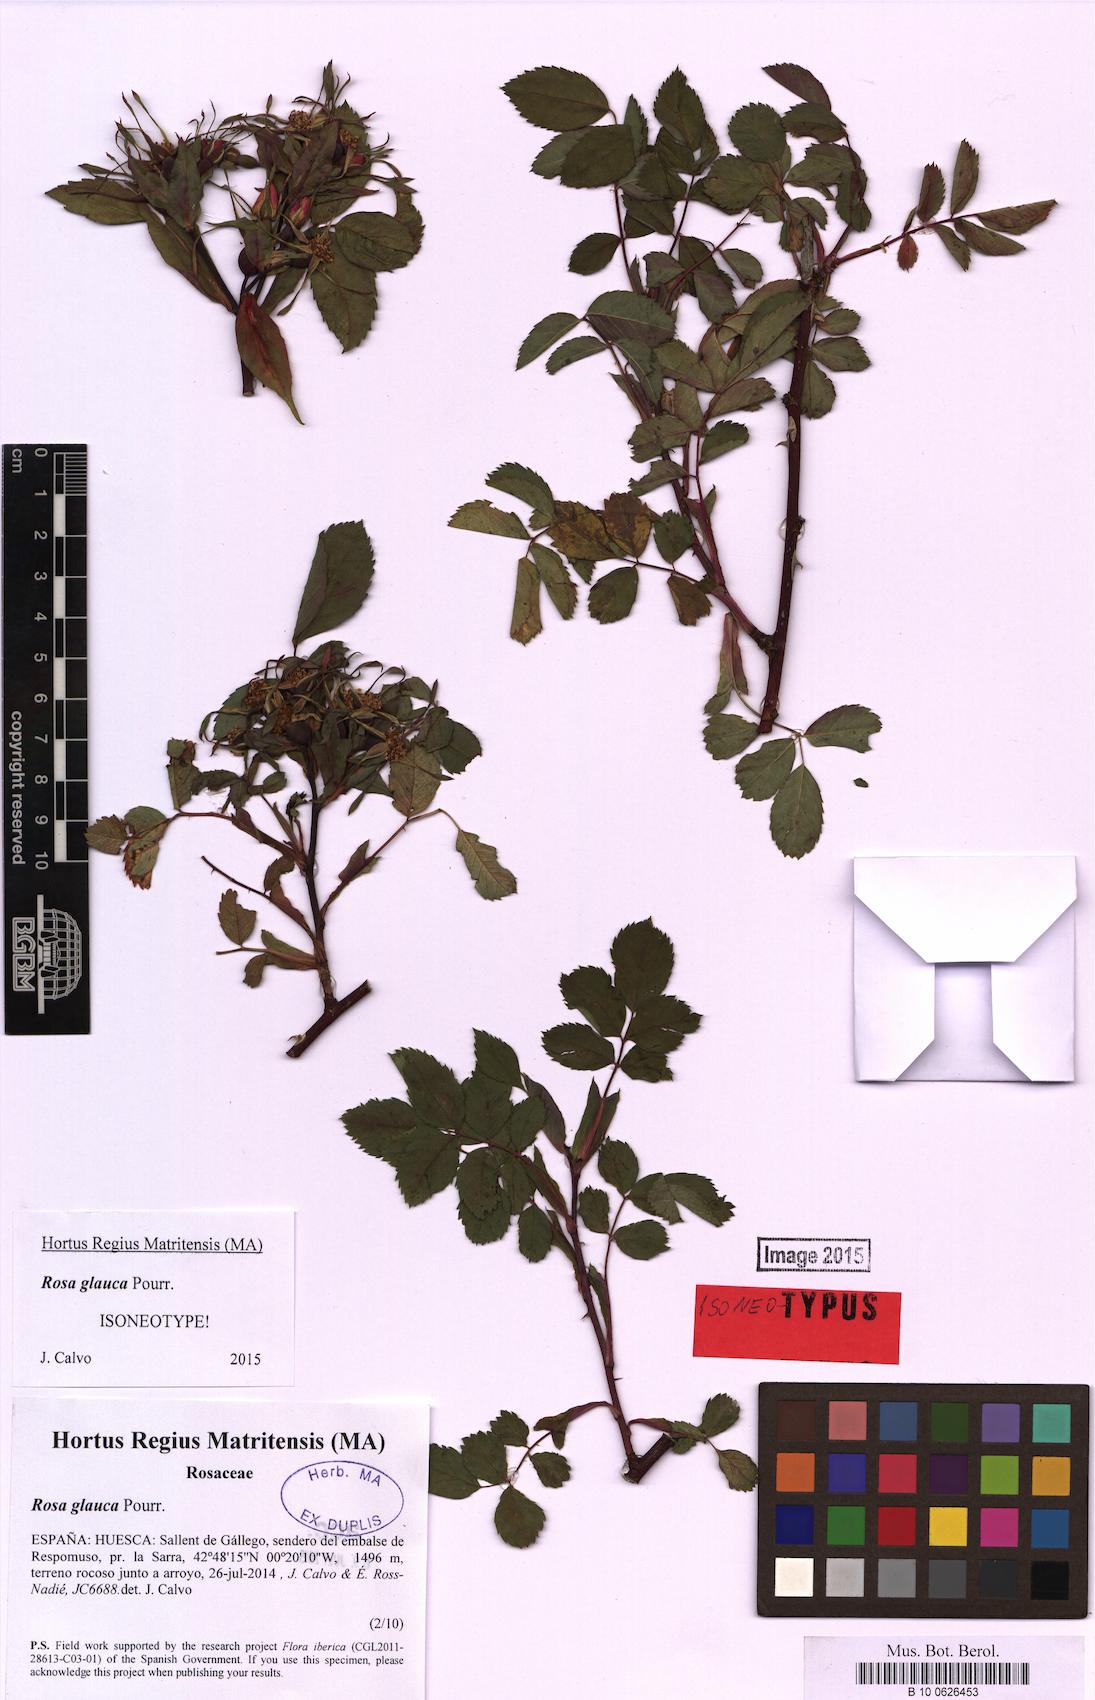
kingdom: Plantae
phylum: Tracheophyta
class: Magnoliopsida
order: Rosales
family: Rosaceae
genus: Rosa
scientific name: Rosa glauca
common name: Redleaf rose
